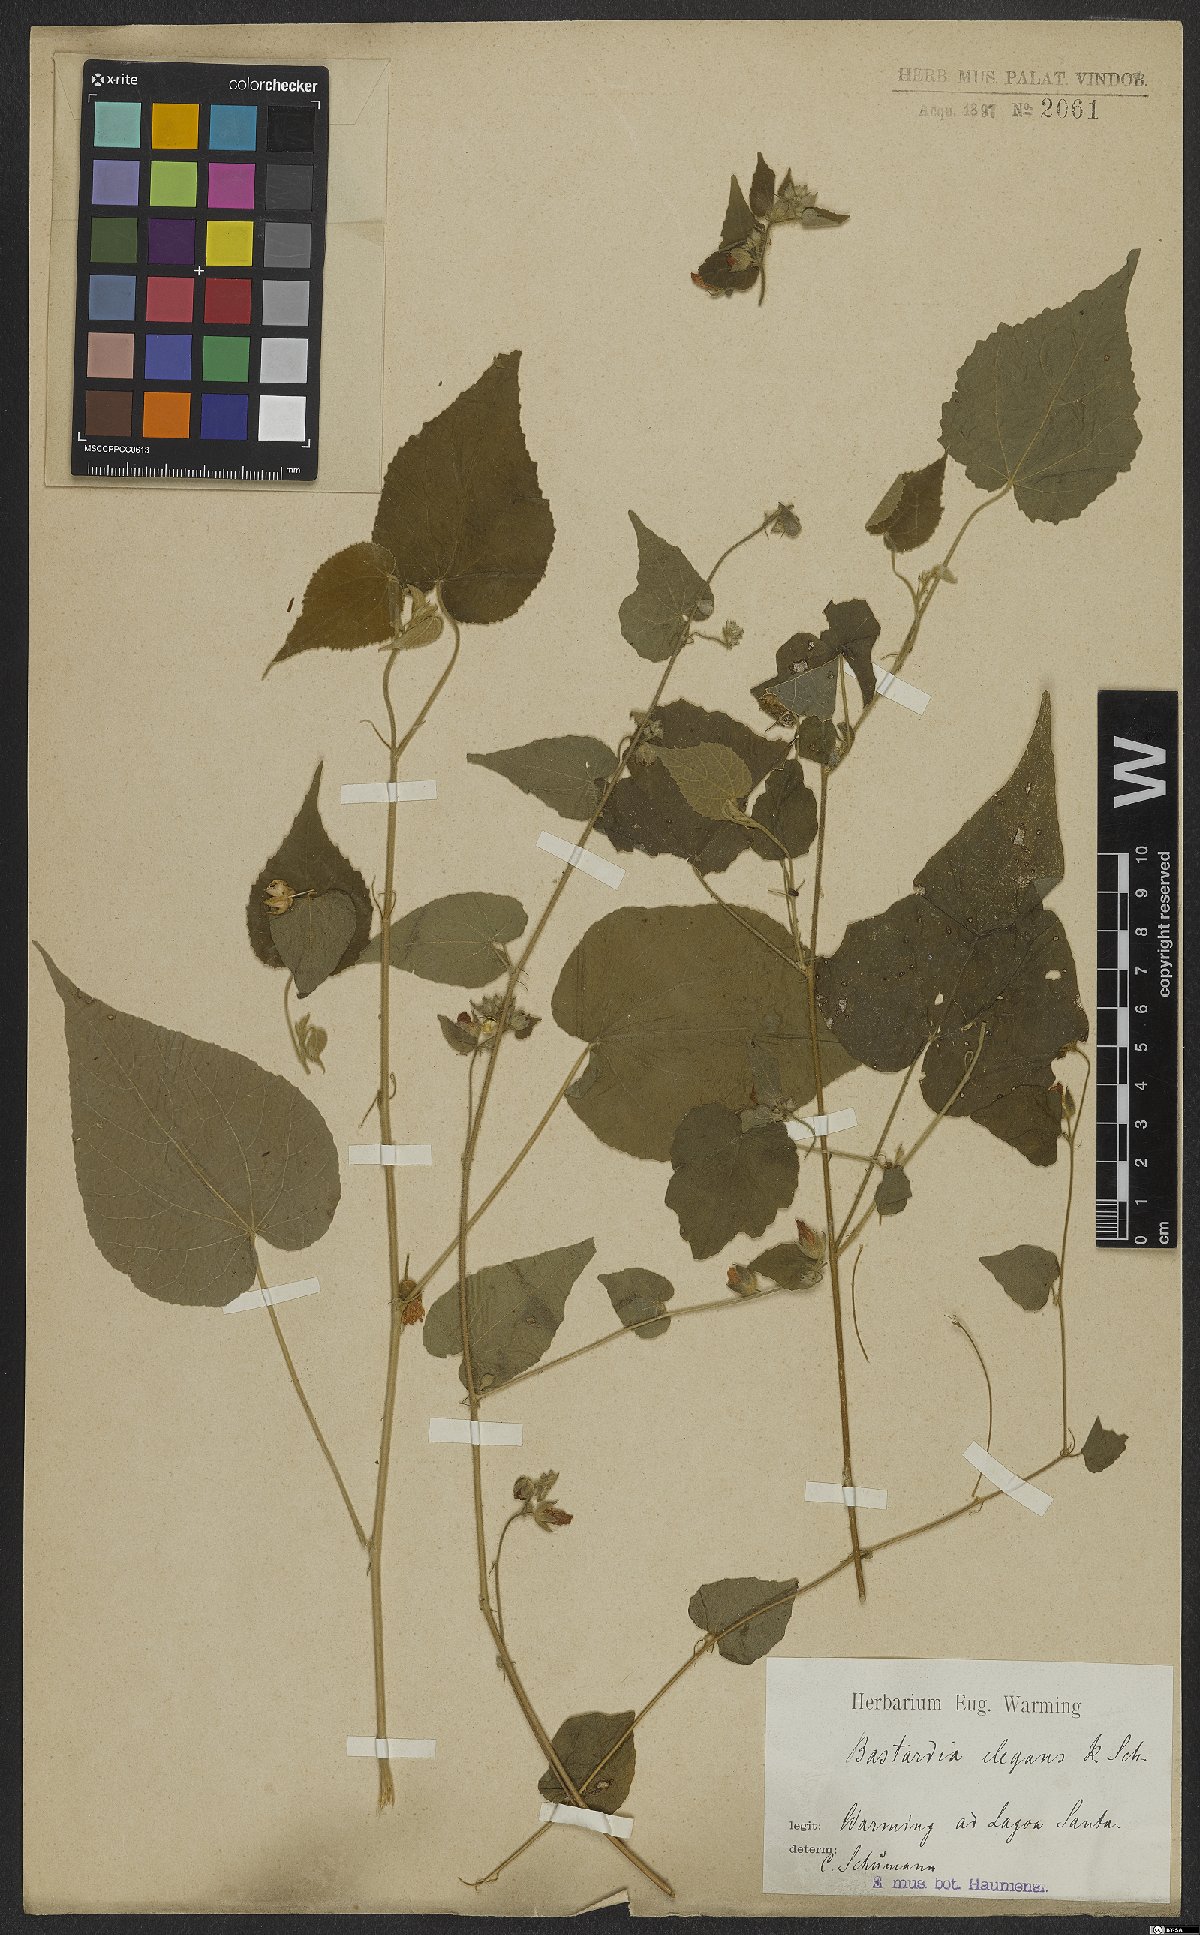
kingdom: Plantae
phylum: Tracheophyta
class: Magnoliopsida
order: Malvales
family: Malvaceae
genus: Abutilon
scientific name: Abutilon bivalve
